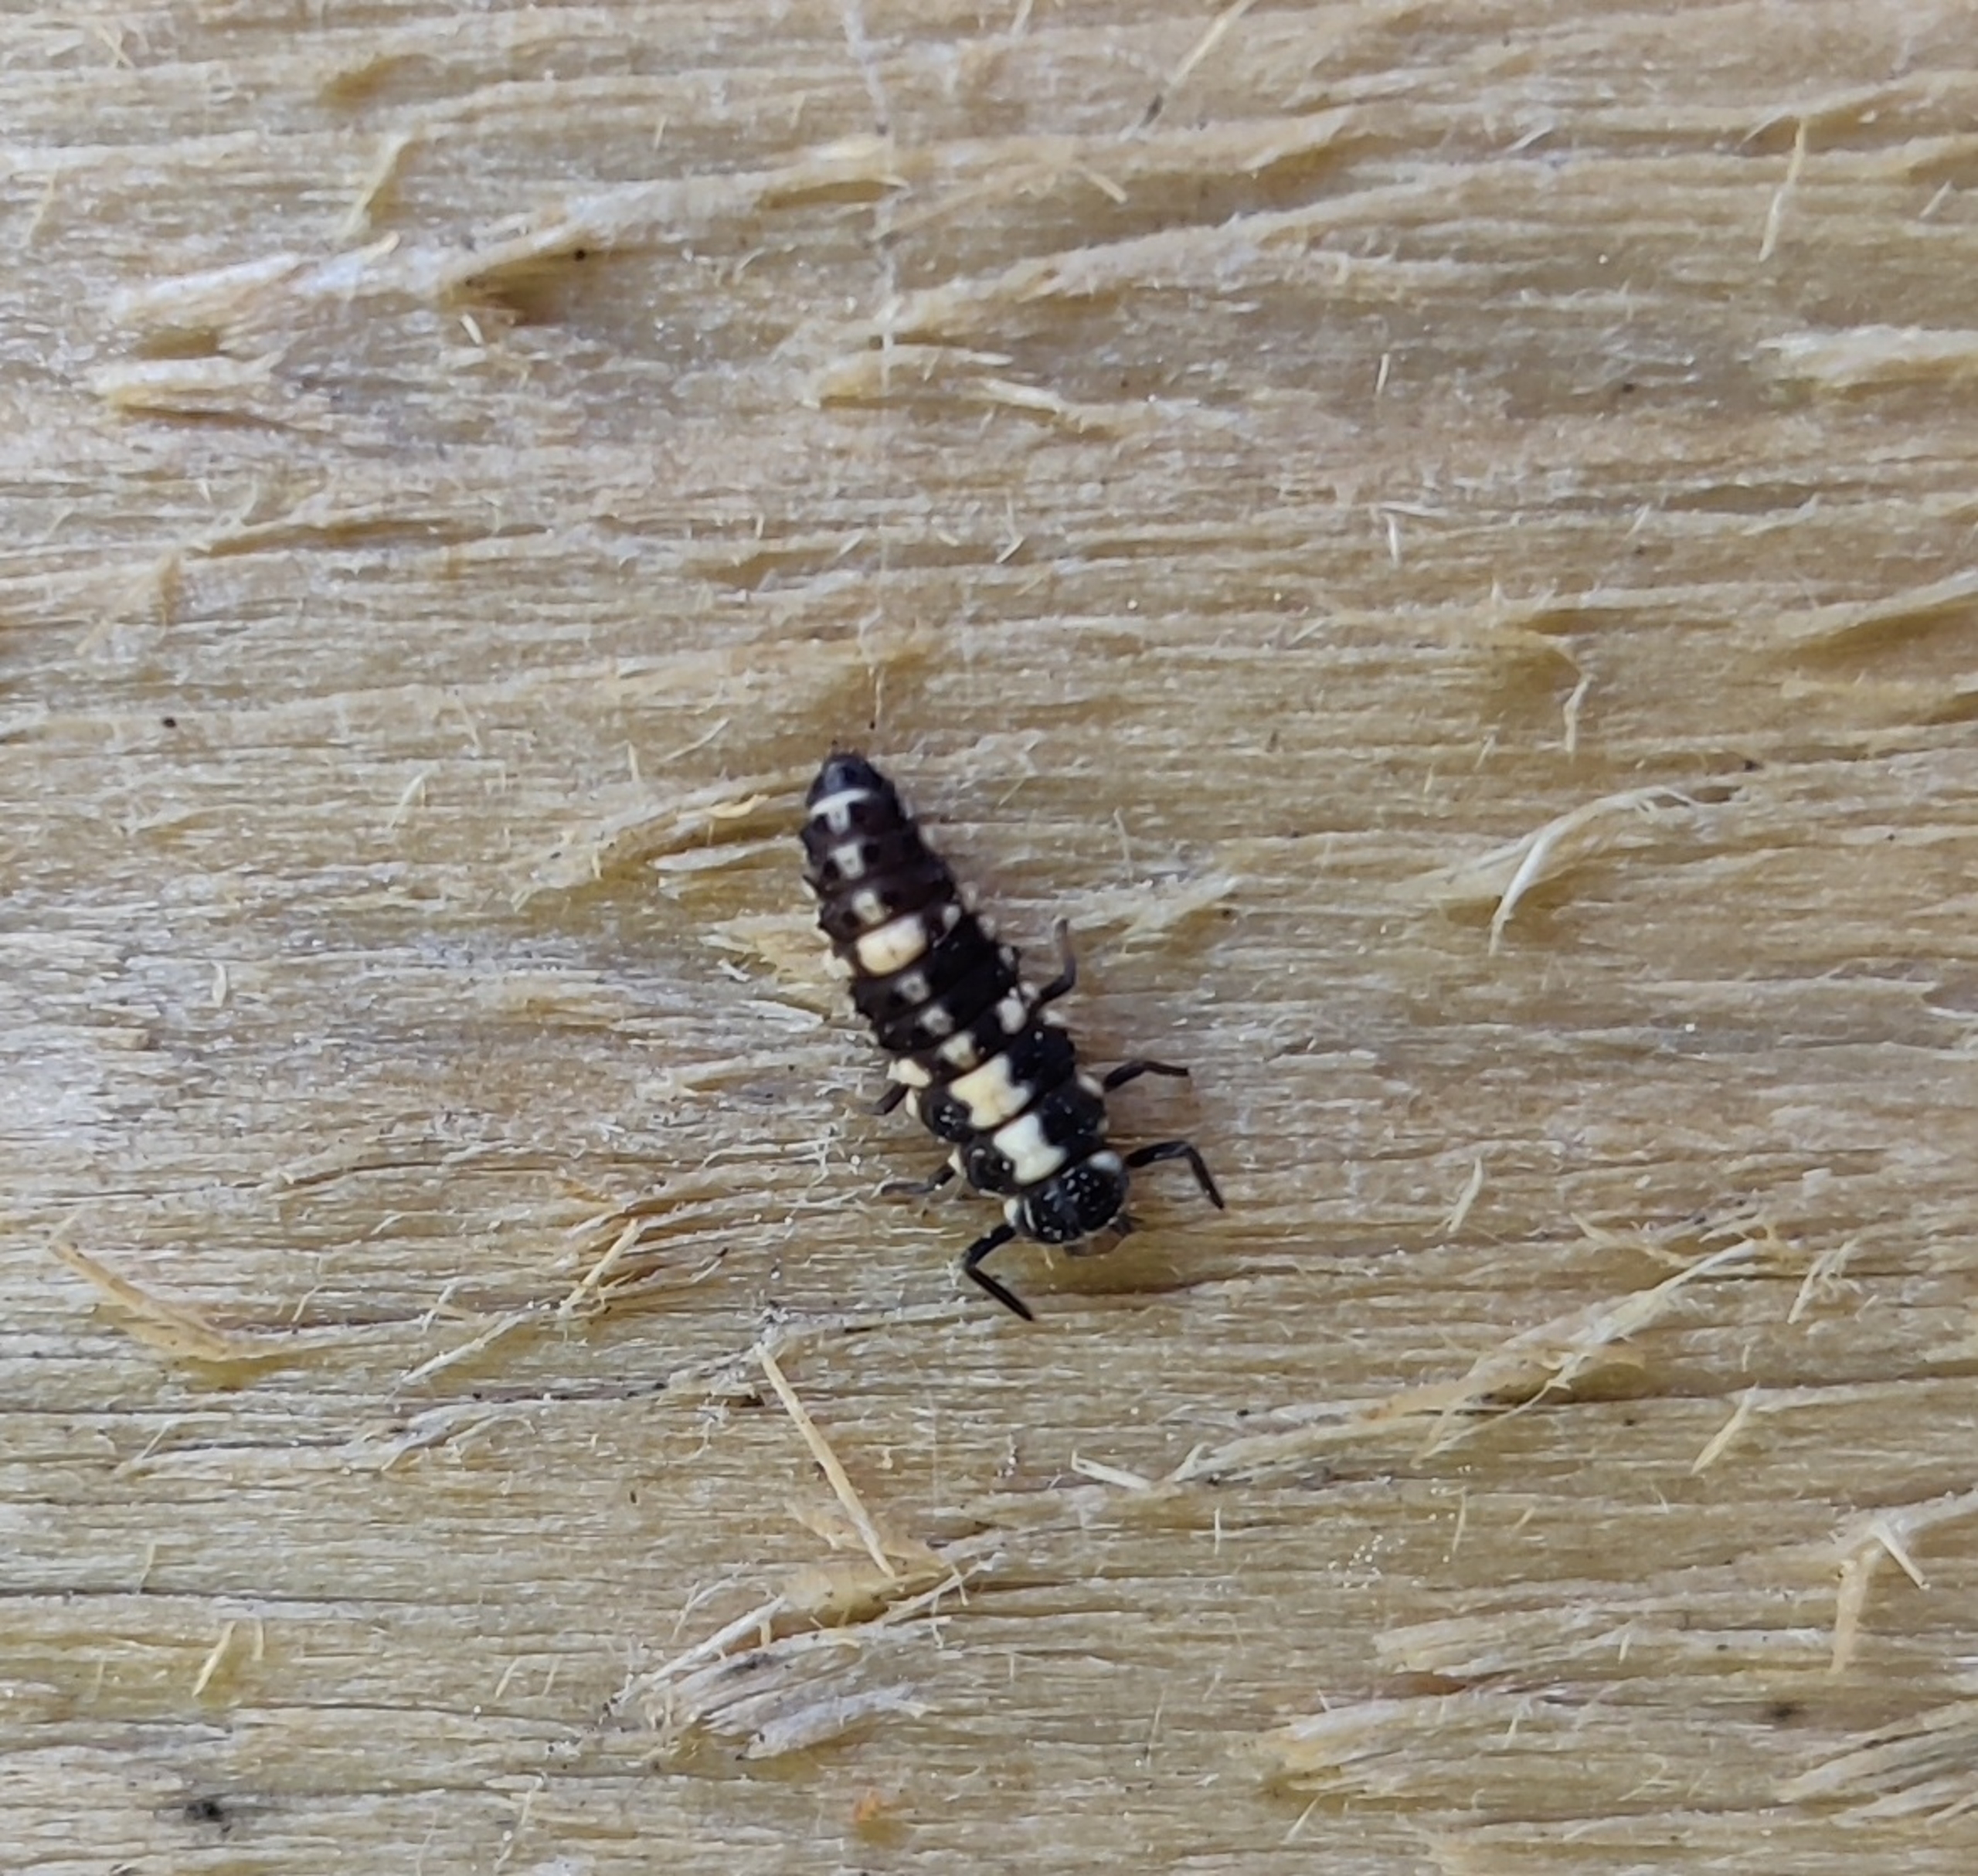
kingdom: Animalia
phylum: Arthropoda
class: Insecta
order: Coleoptera
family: Coccinellidae
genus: Propylaea
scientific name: Propylaea quatuordecimpunctata
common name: Skakbræt
